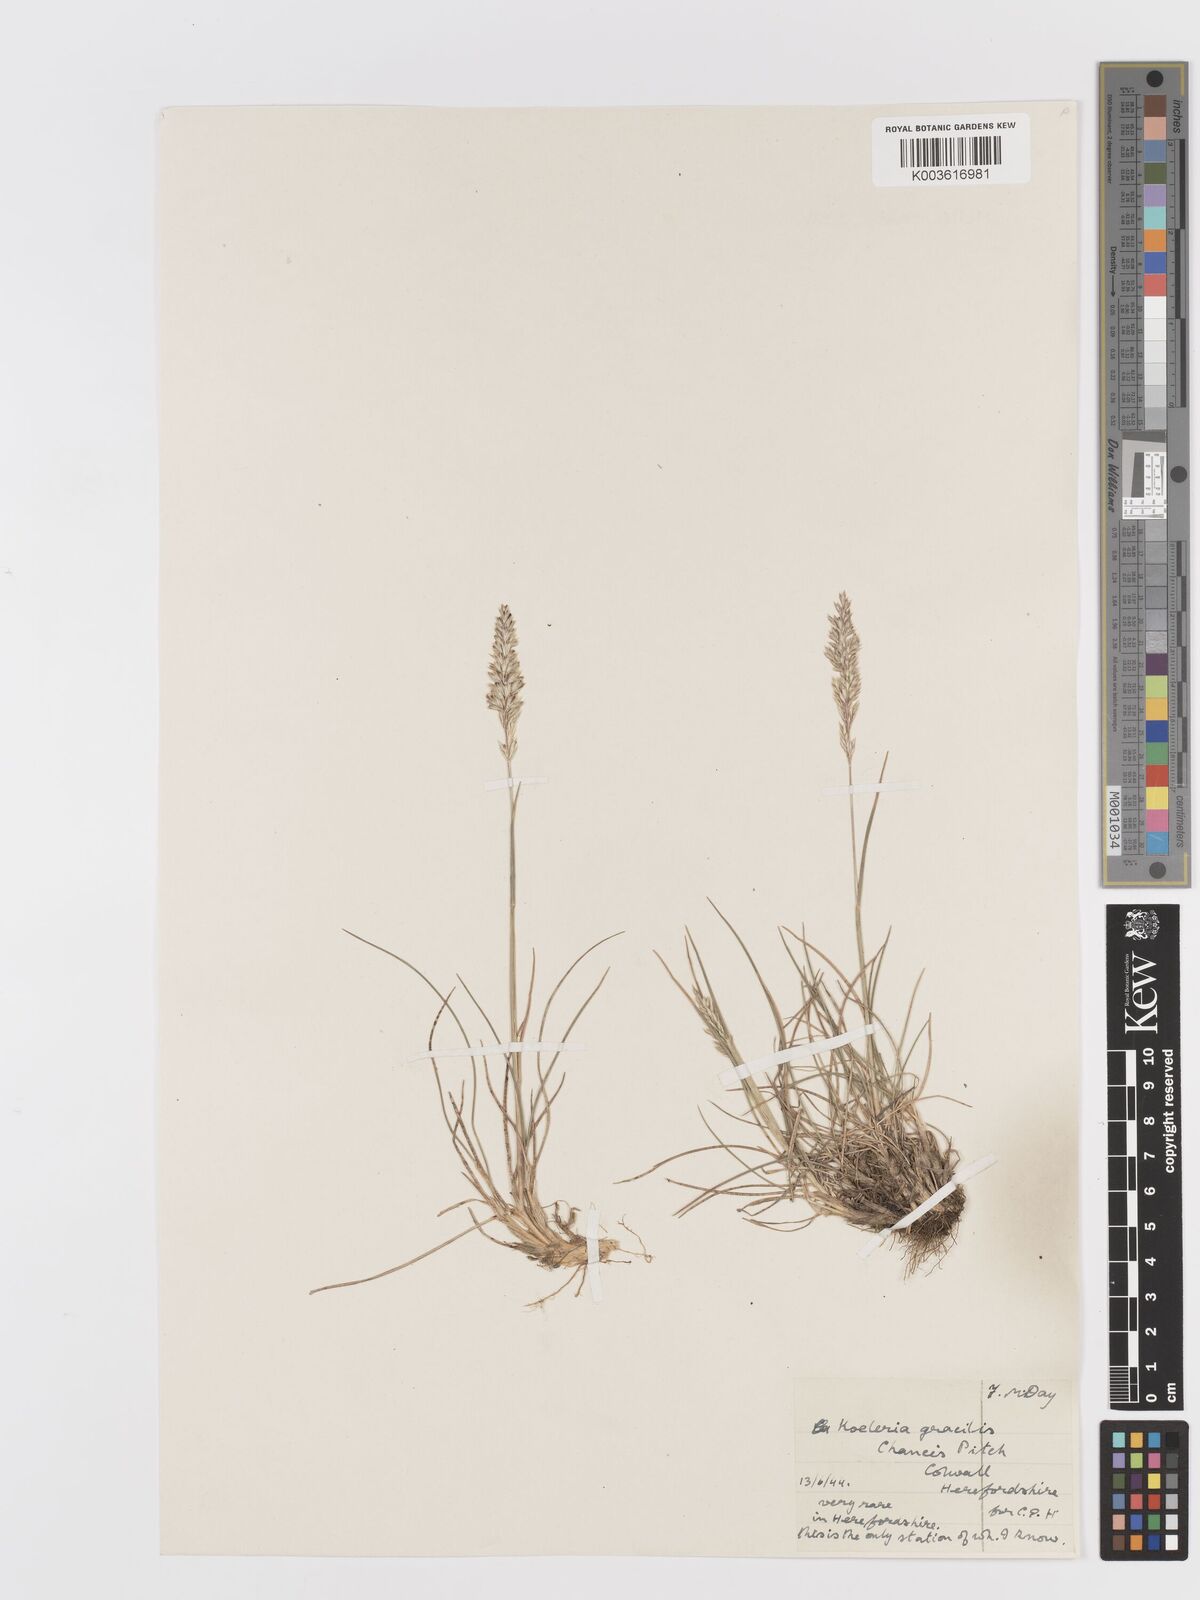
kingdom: Plantae
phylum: Tracheophyta
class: Liliopsida
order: Poales
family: Poaceae
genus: Koeleria
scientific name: Koeleria macrantha
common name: Crested hair-grass
